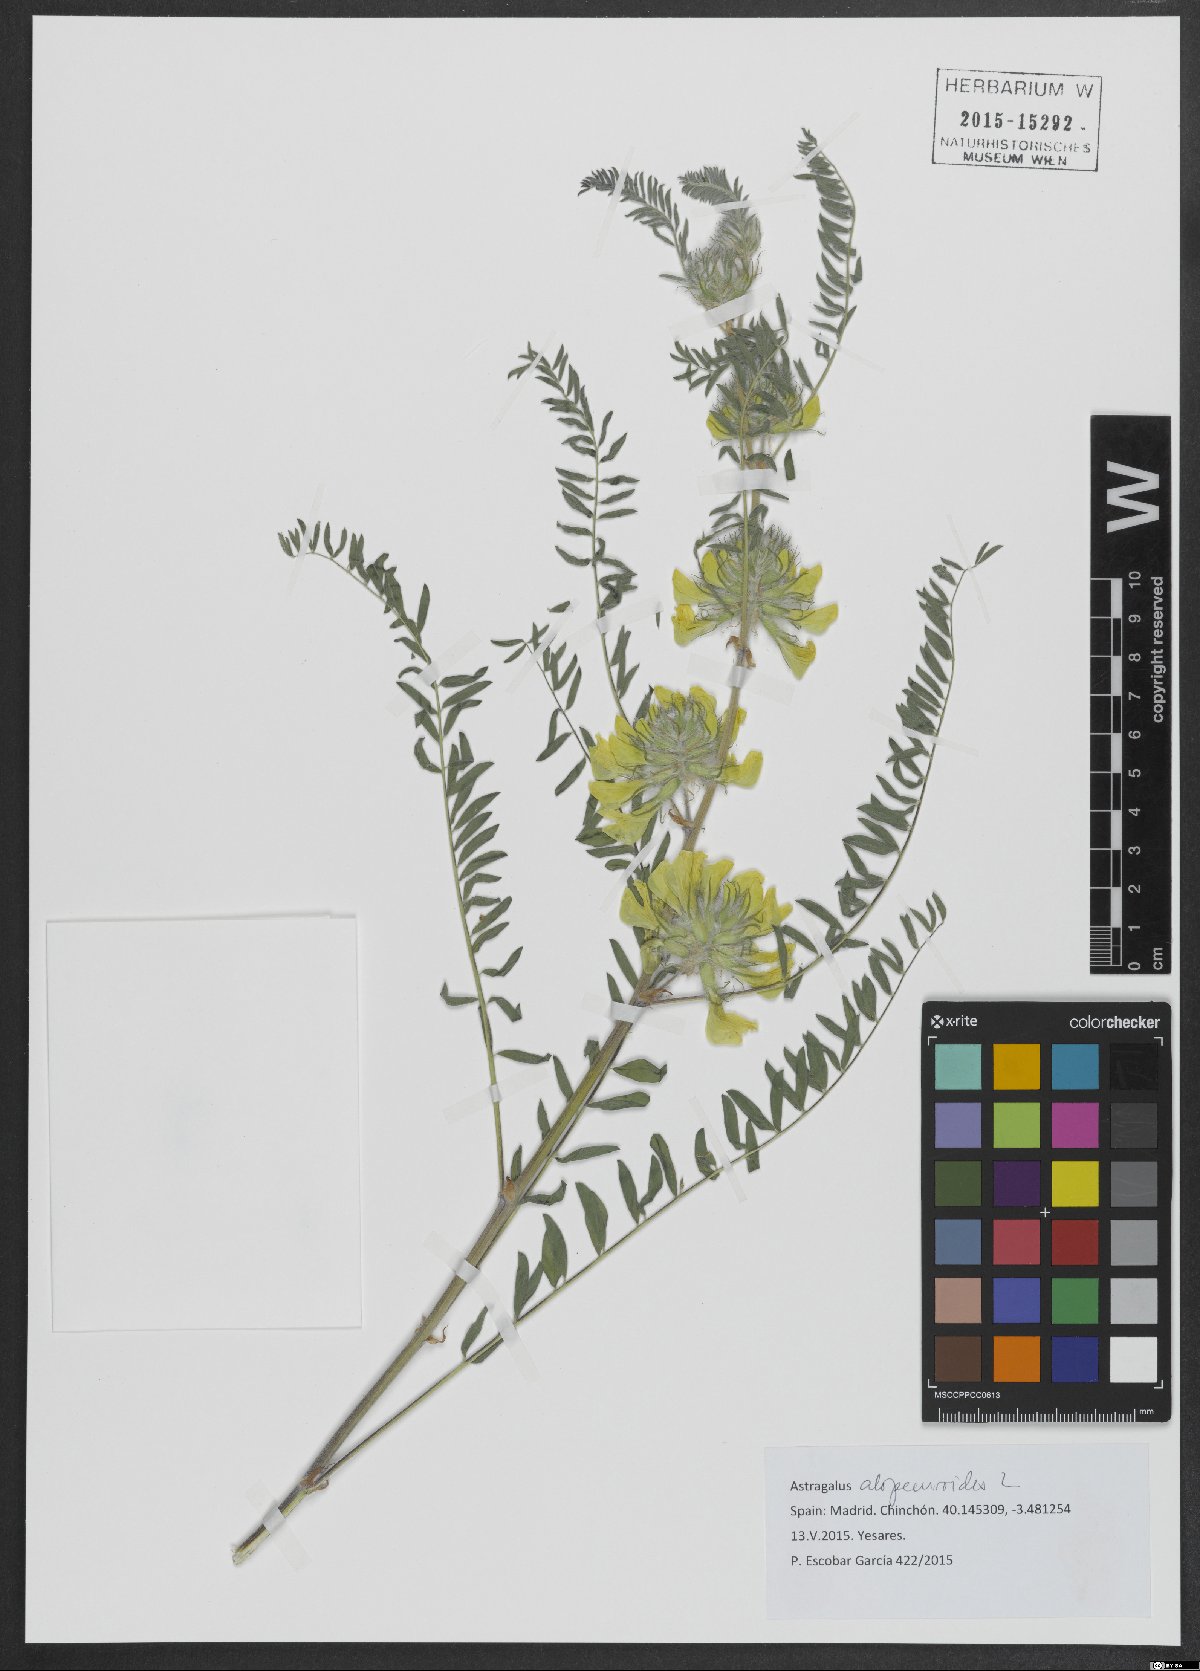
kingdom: Plantae
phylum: Tracheophyta
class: Magnoliopsida
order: Fabales
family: Fabaceae
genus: Astragalus
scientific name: Astragalus alopecuroides
